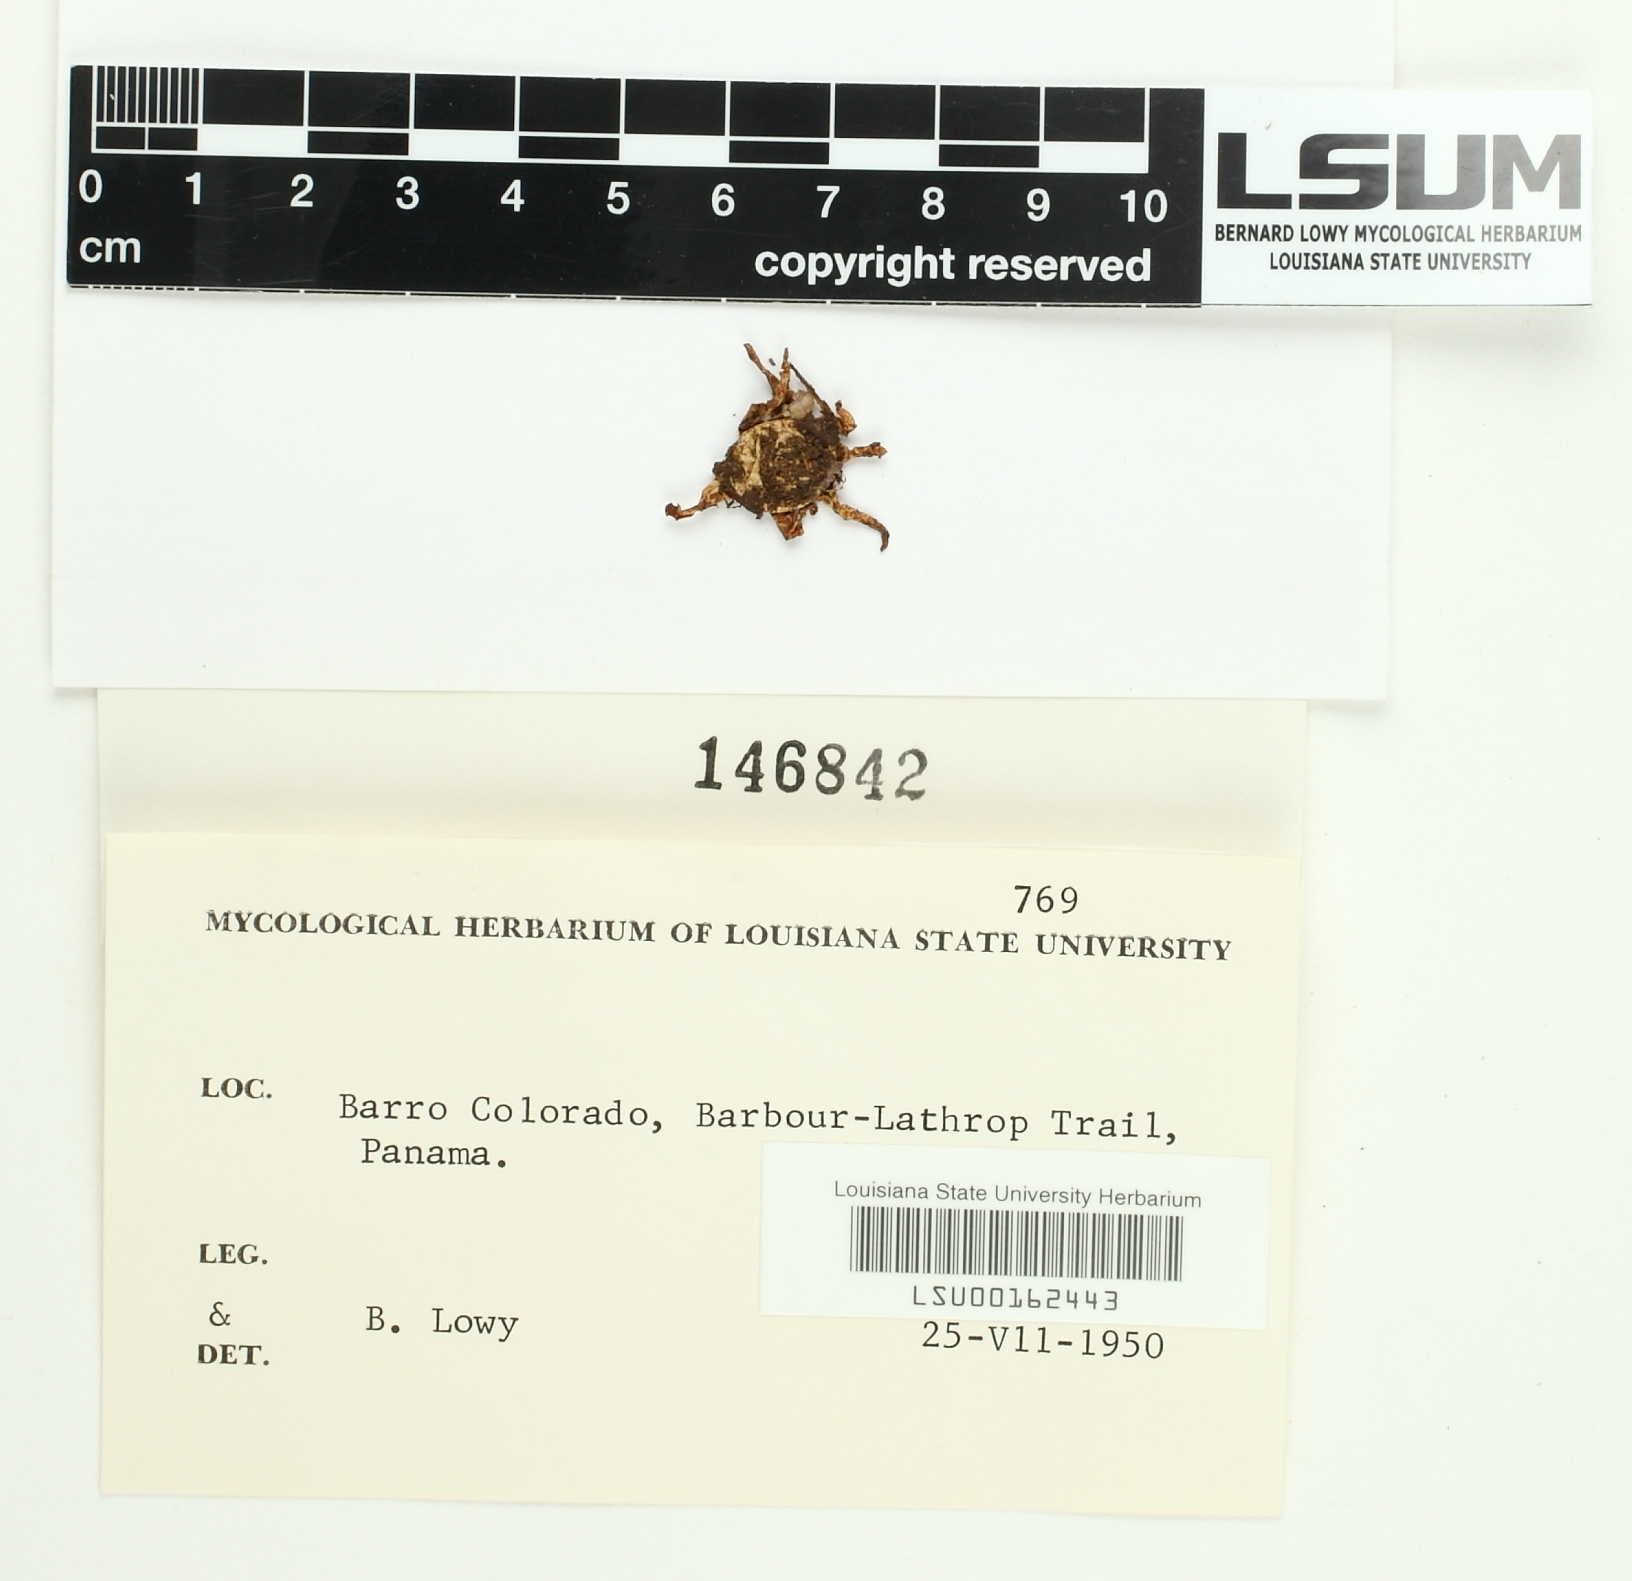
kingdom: Fungi
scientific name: Fungi
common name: Fungi
